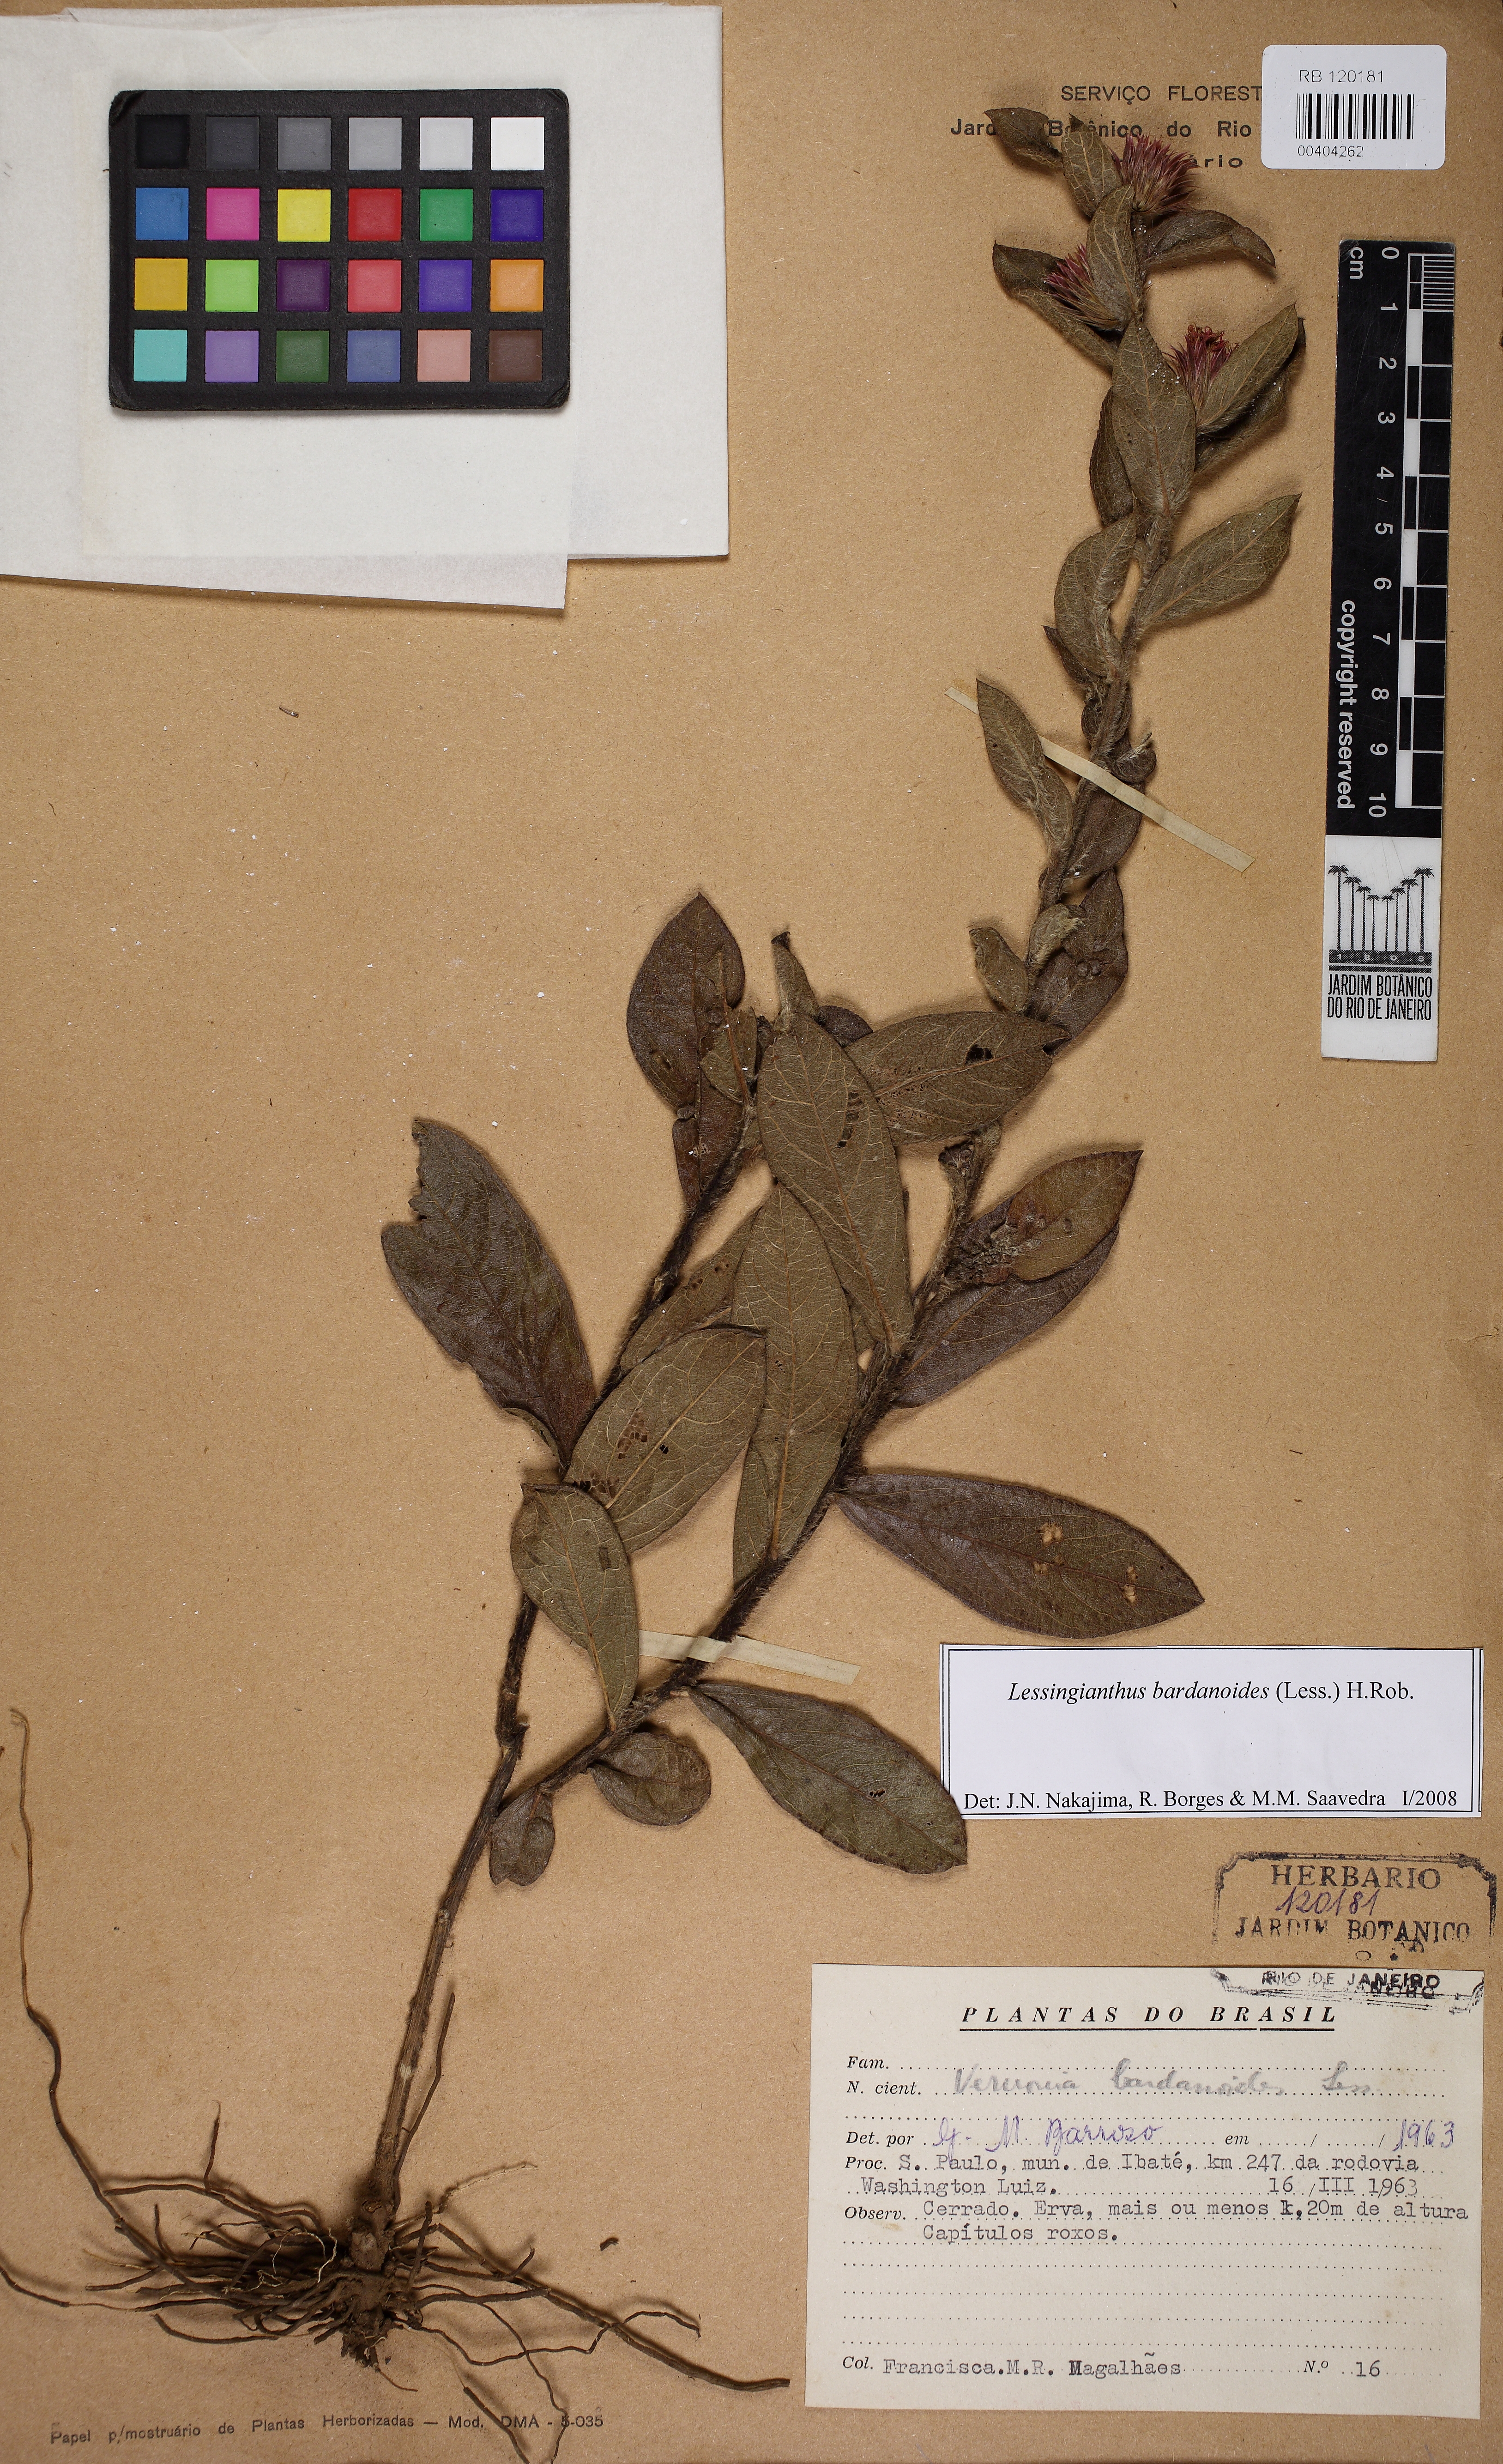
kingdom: Plantae
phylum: Tracheophyta
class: Magnoliopsida
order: Asterales
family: Asteraceae
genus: Lessingianthus
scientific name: Lessingianthus bardanioides
